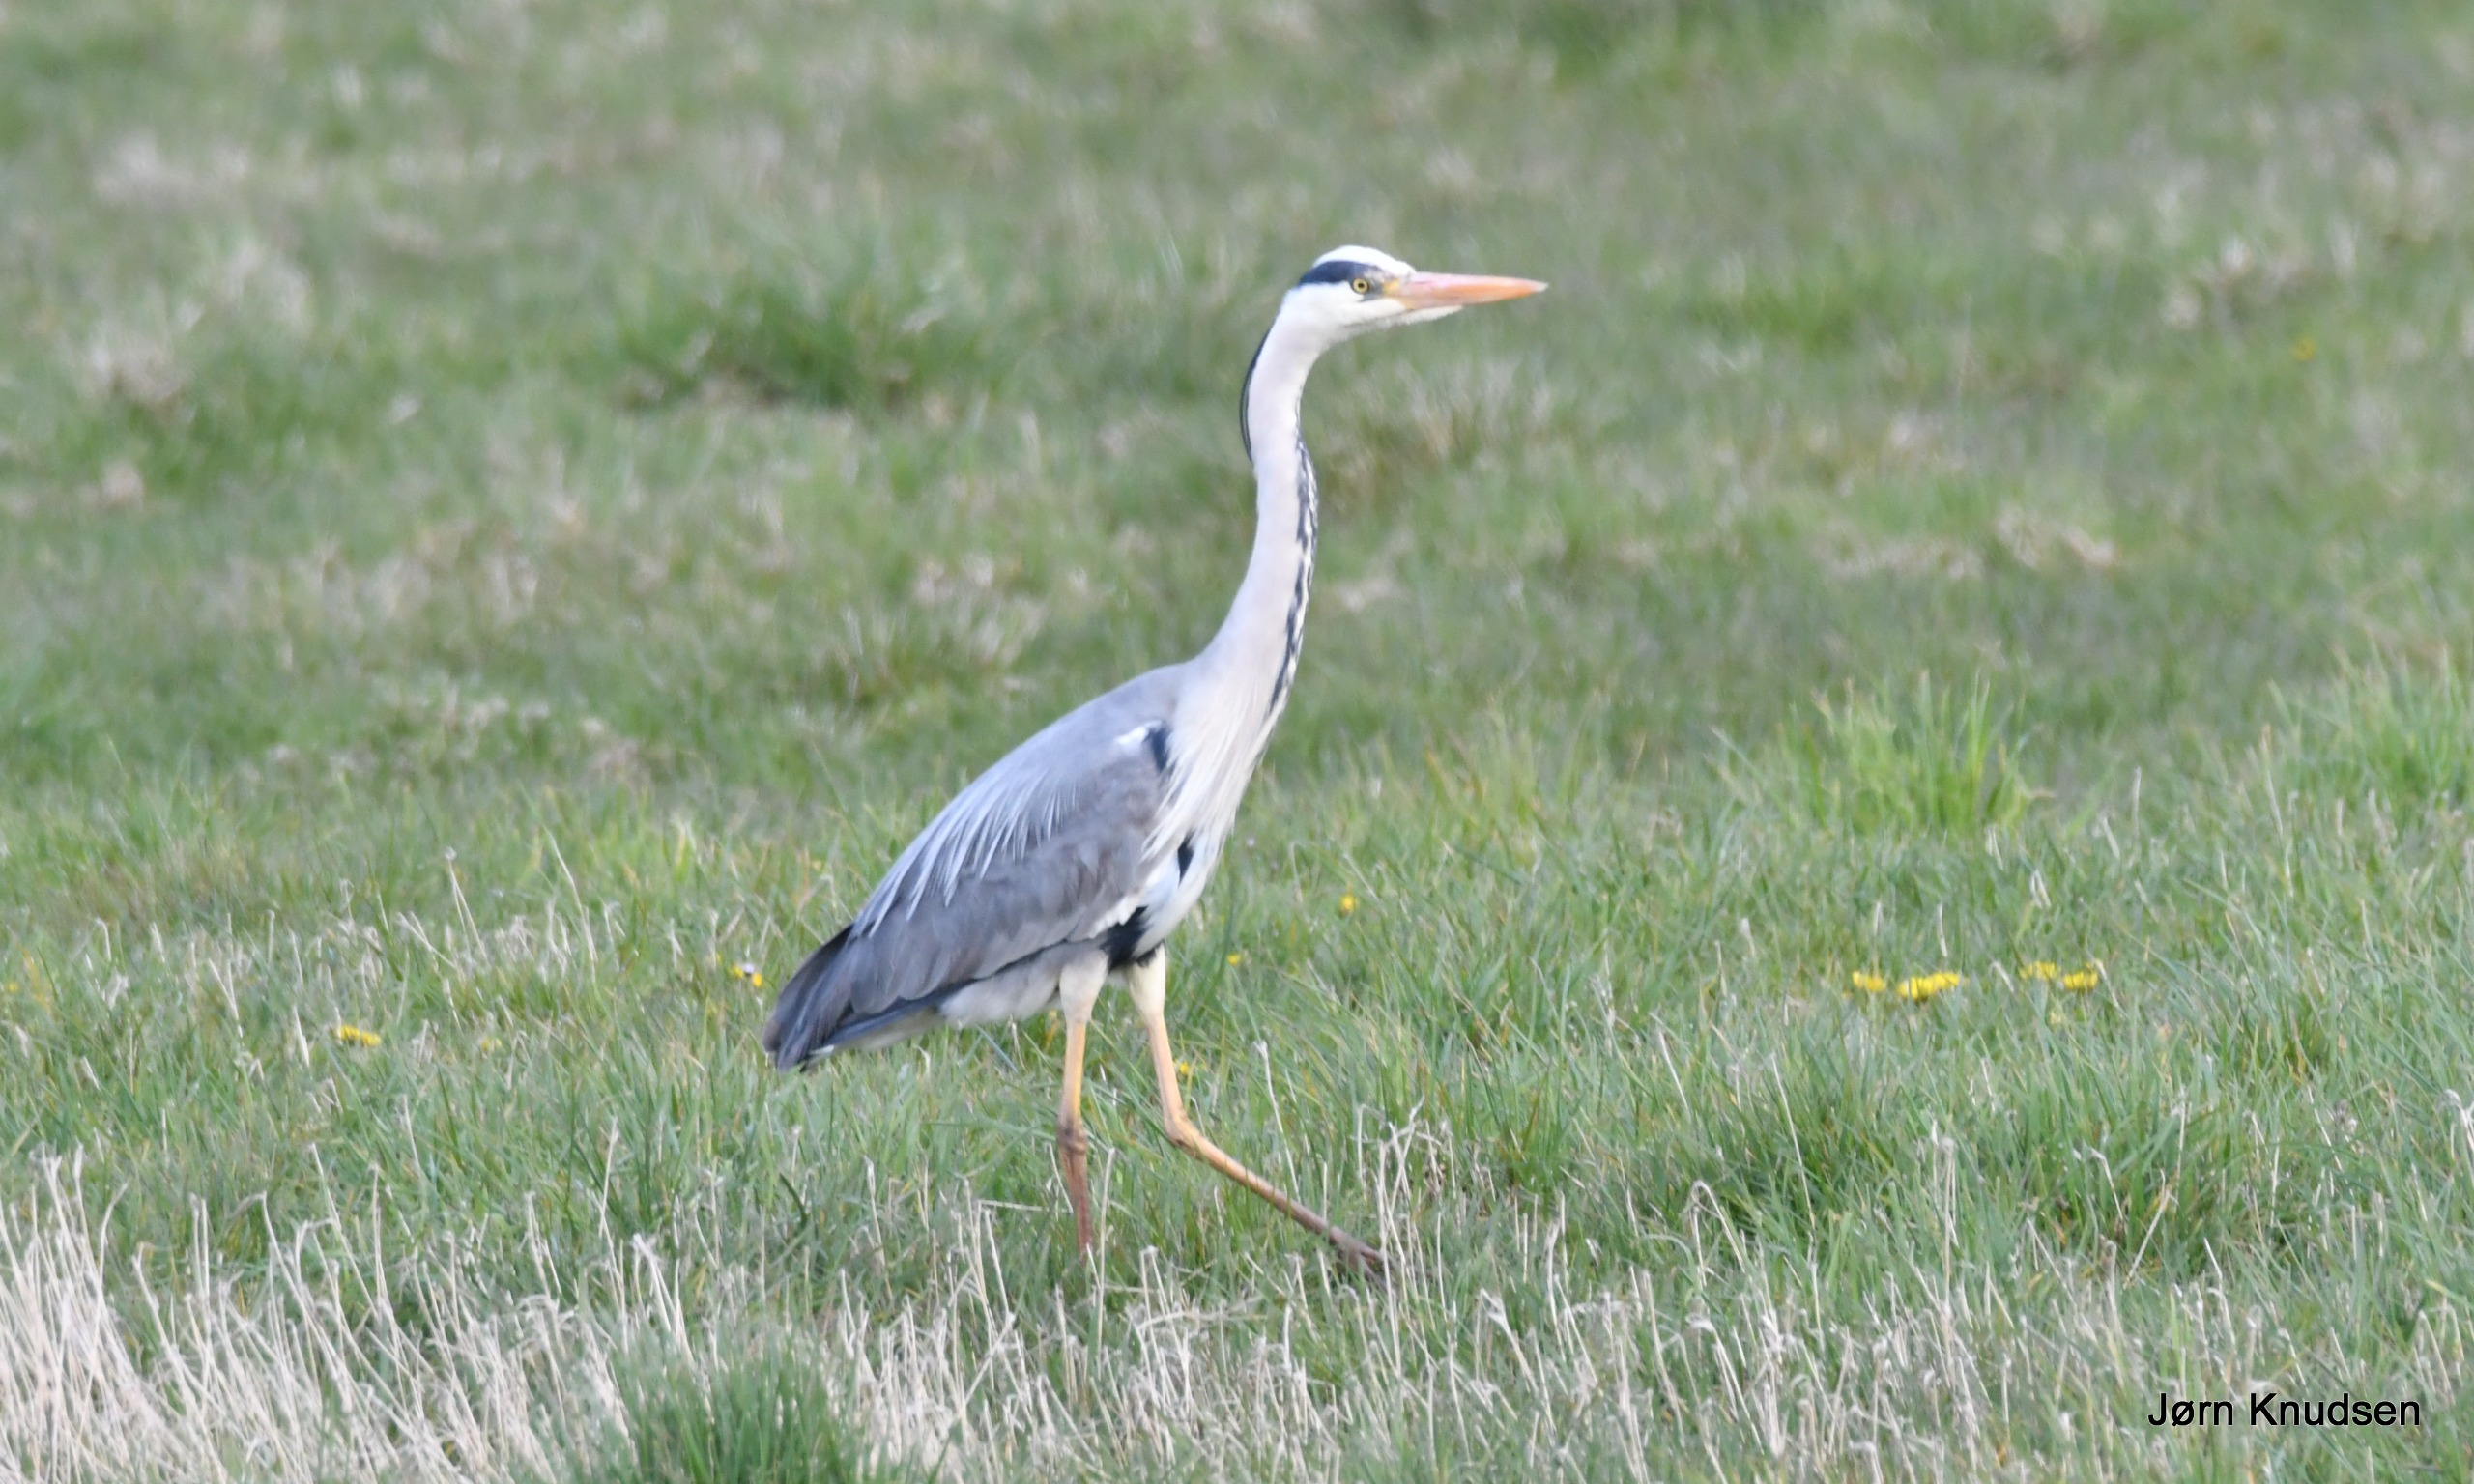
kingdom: Animalia
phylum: Chordata
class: Aves
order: Pelecaniformes
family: Ardeidae
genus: Ardea
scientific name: Ardea cinerea
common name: Fiskehejre
